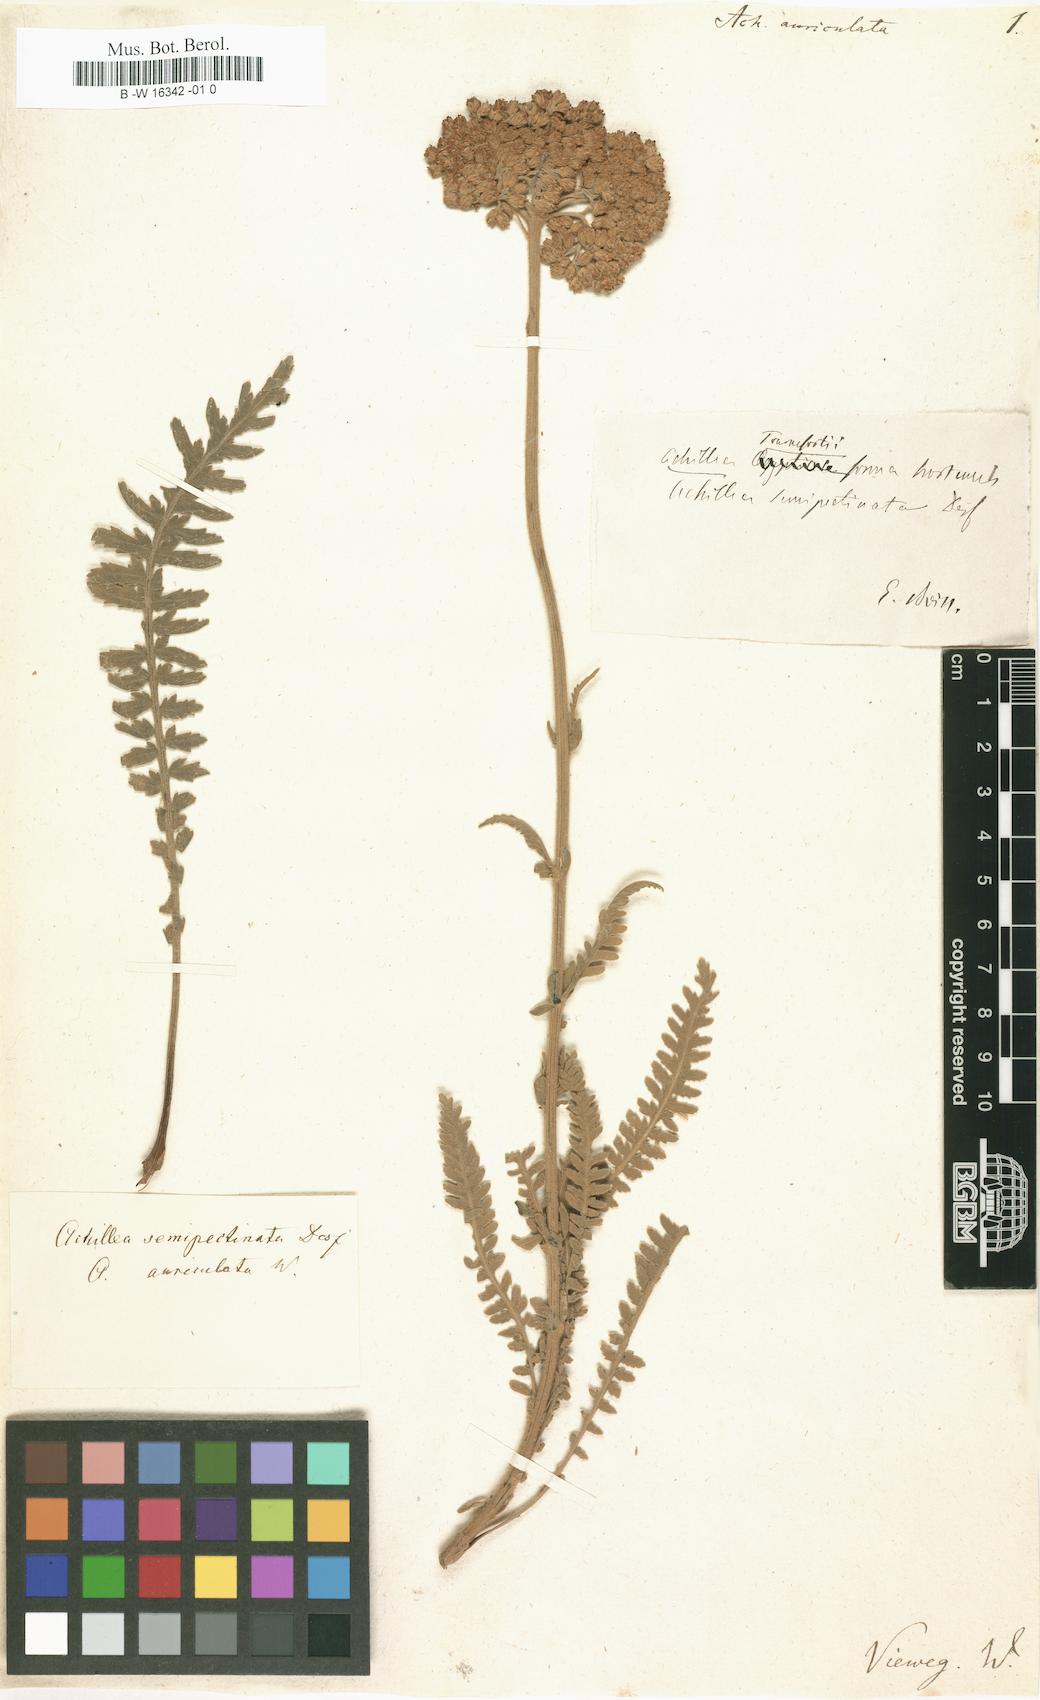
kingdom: Plantae
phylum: Tracheophyta
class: Magnoliopsida
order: Asterales
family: Asteraceae
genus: Achillea
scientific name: Achillea auriculata
